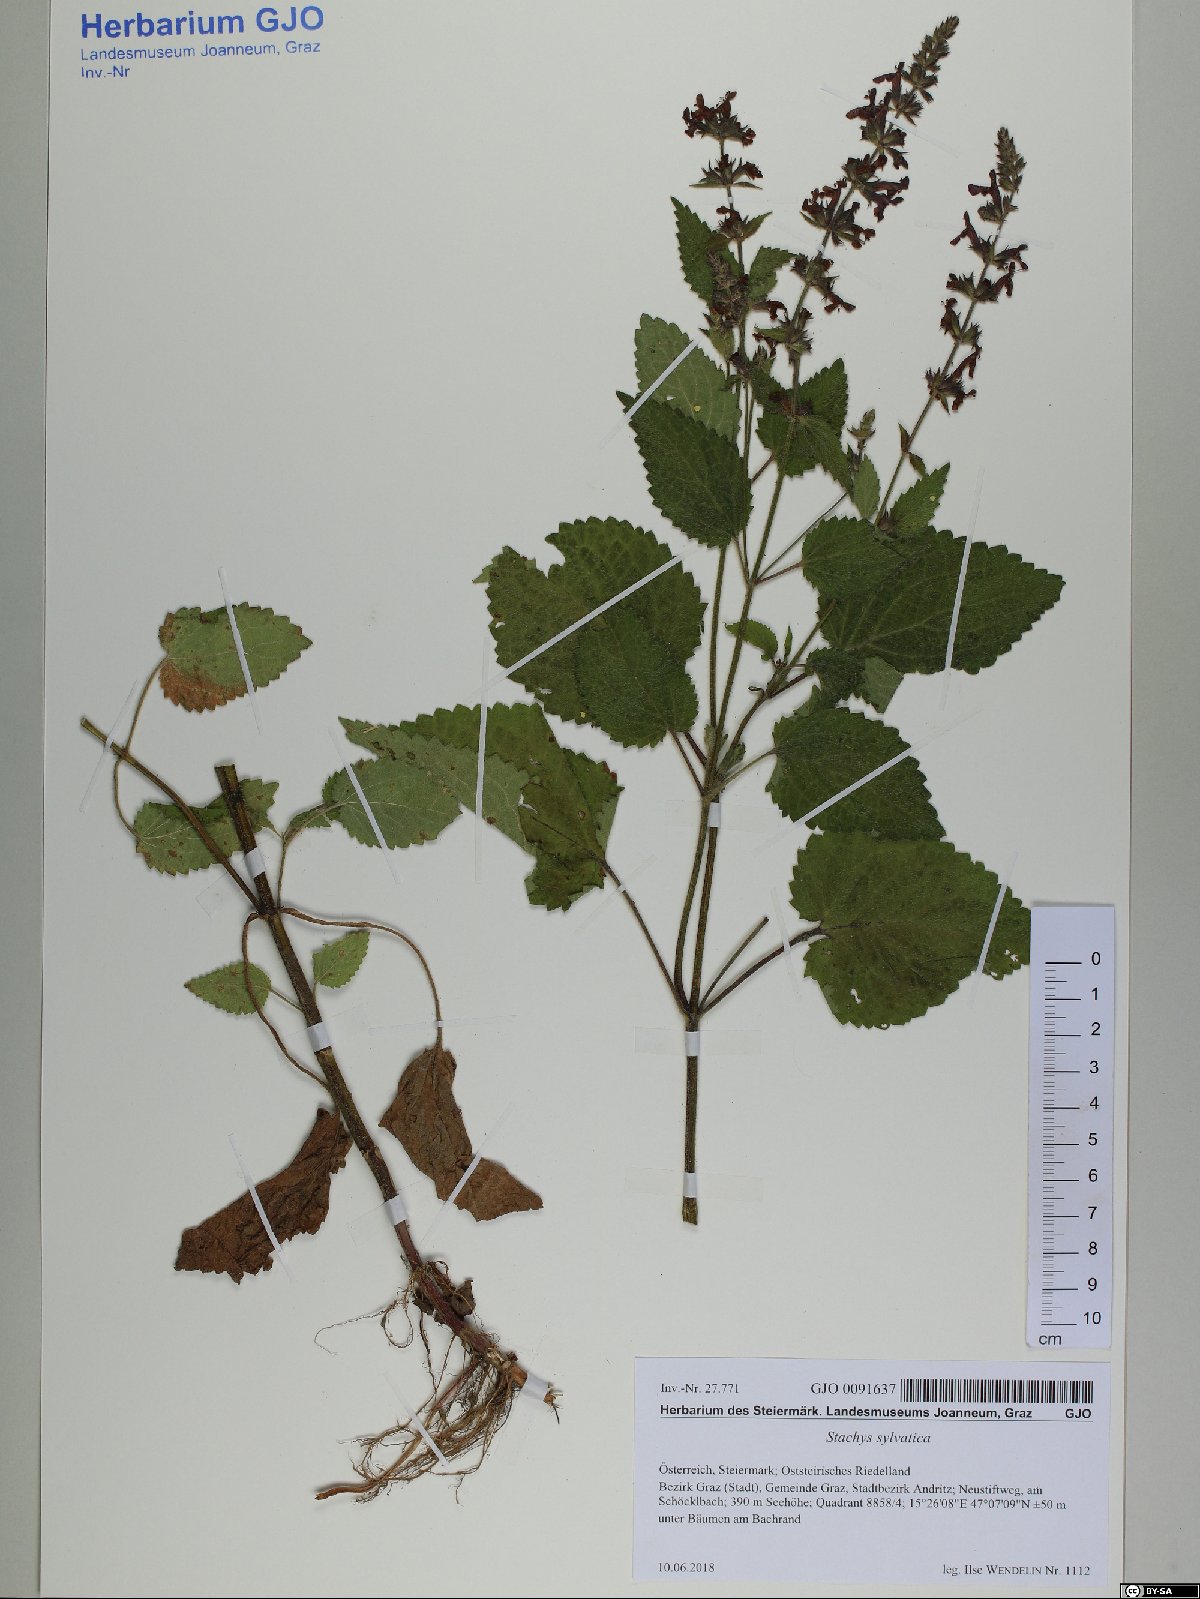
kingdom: Plantae
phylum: Tracheophyta
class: Magnoliopsida
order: Lamiales
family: Lamiaceae
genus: Stachys
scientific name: Stachys sylvatica
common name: Hedge woundwort
